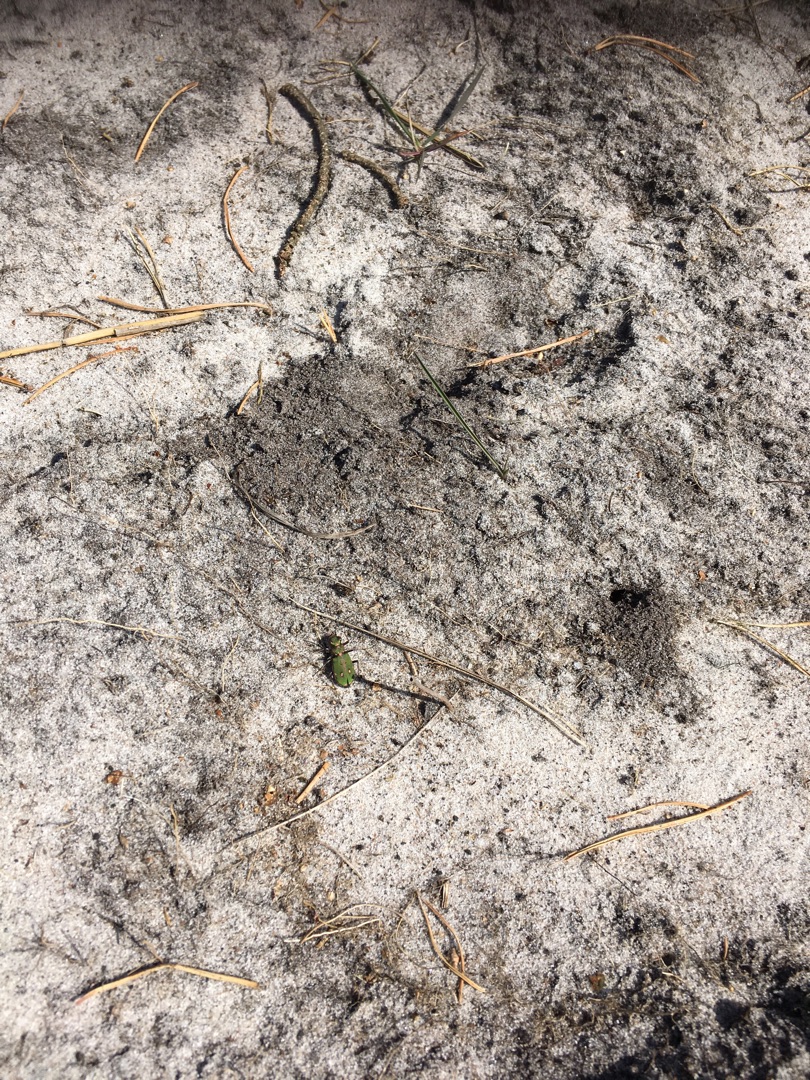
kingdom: Animalia
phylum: Arthropoda
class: Insecta
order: Coleoptera
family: Carabidae
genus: Cicindela
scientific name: Cicindela campestris
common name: Grøn sandspringer
